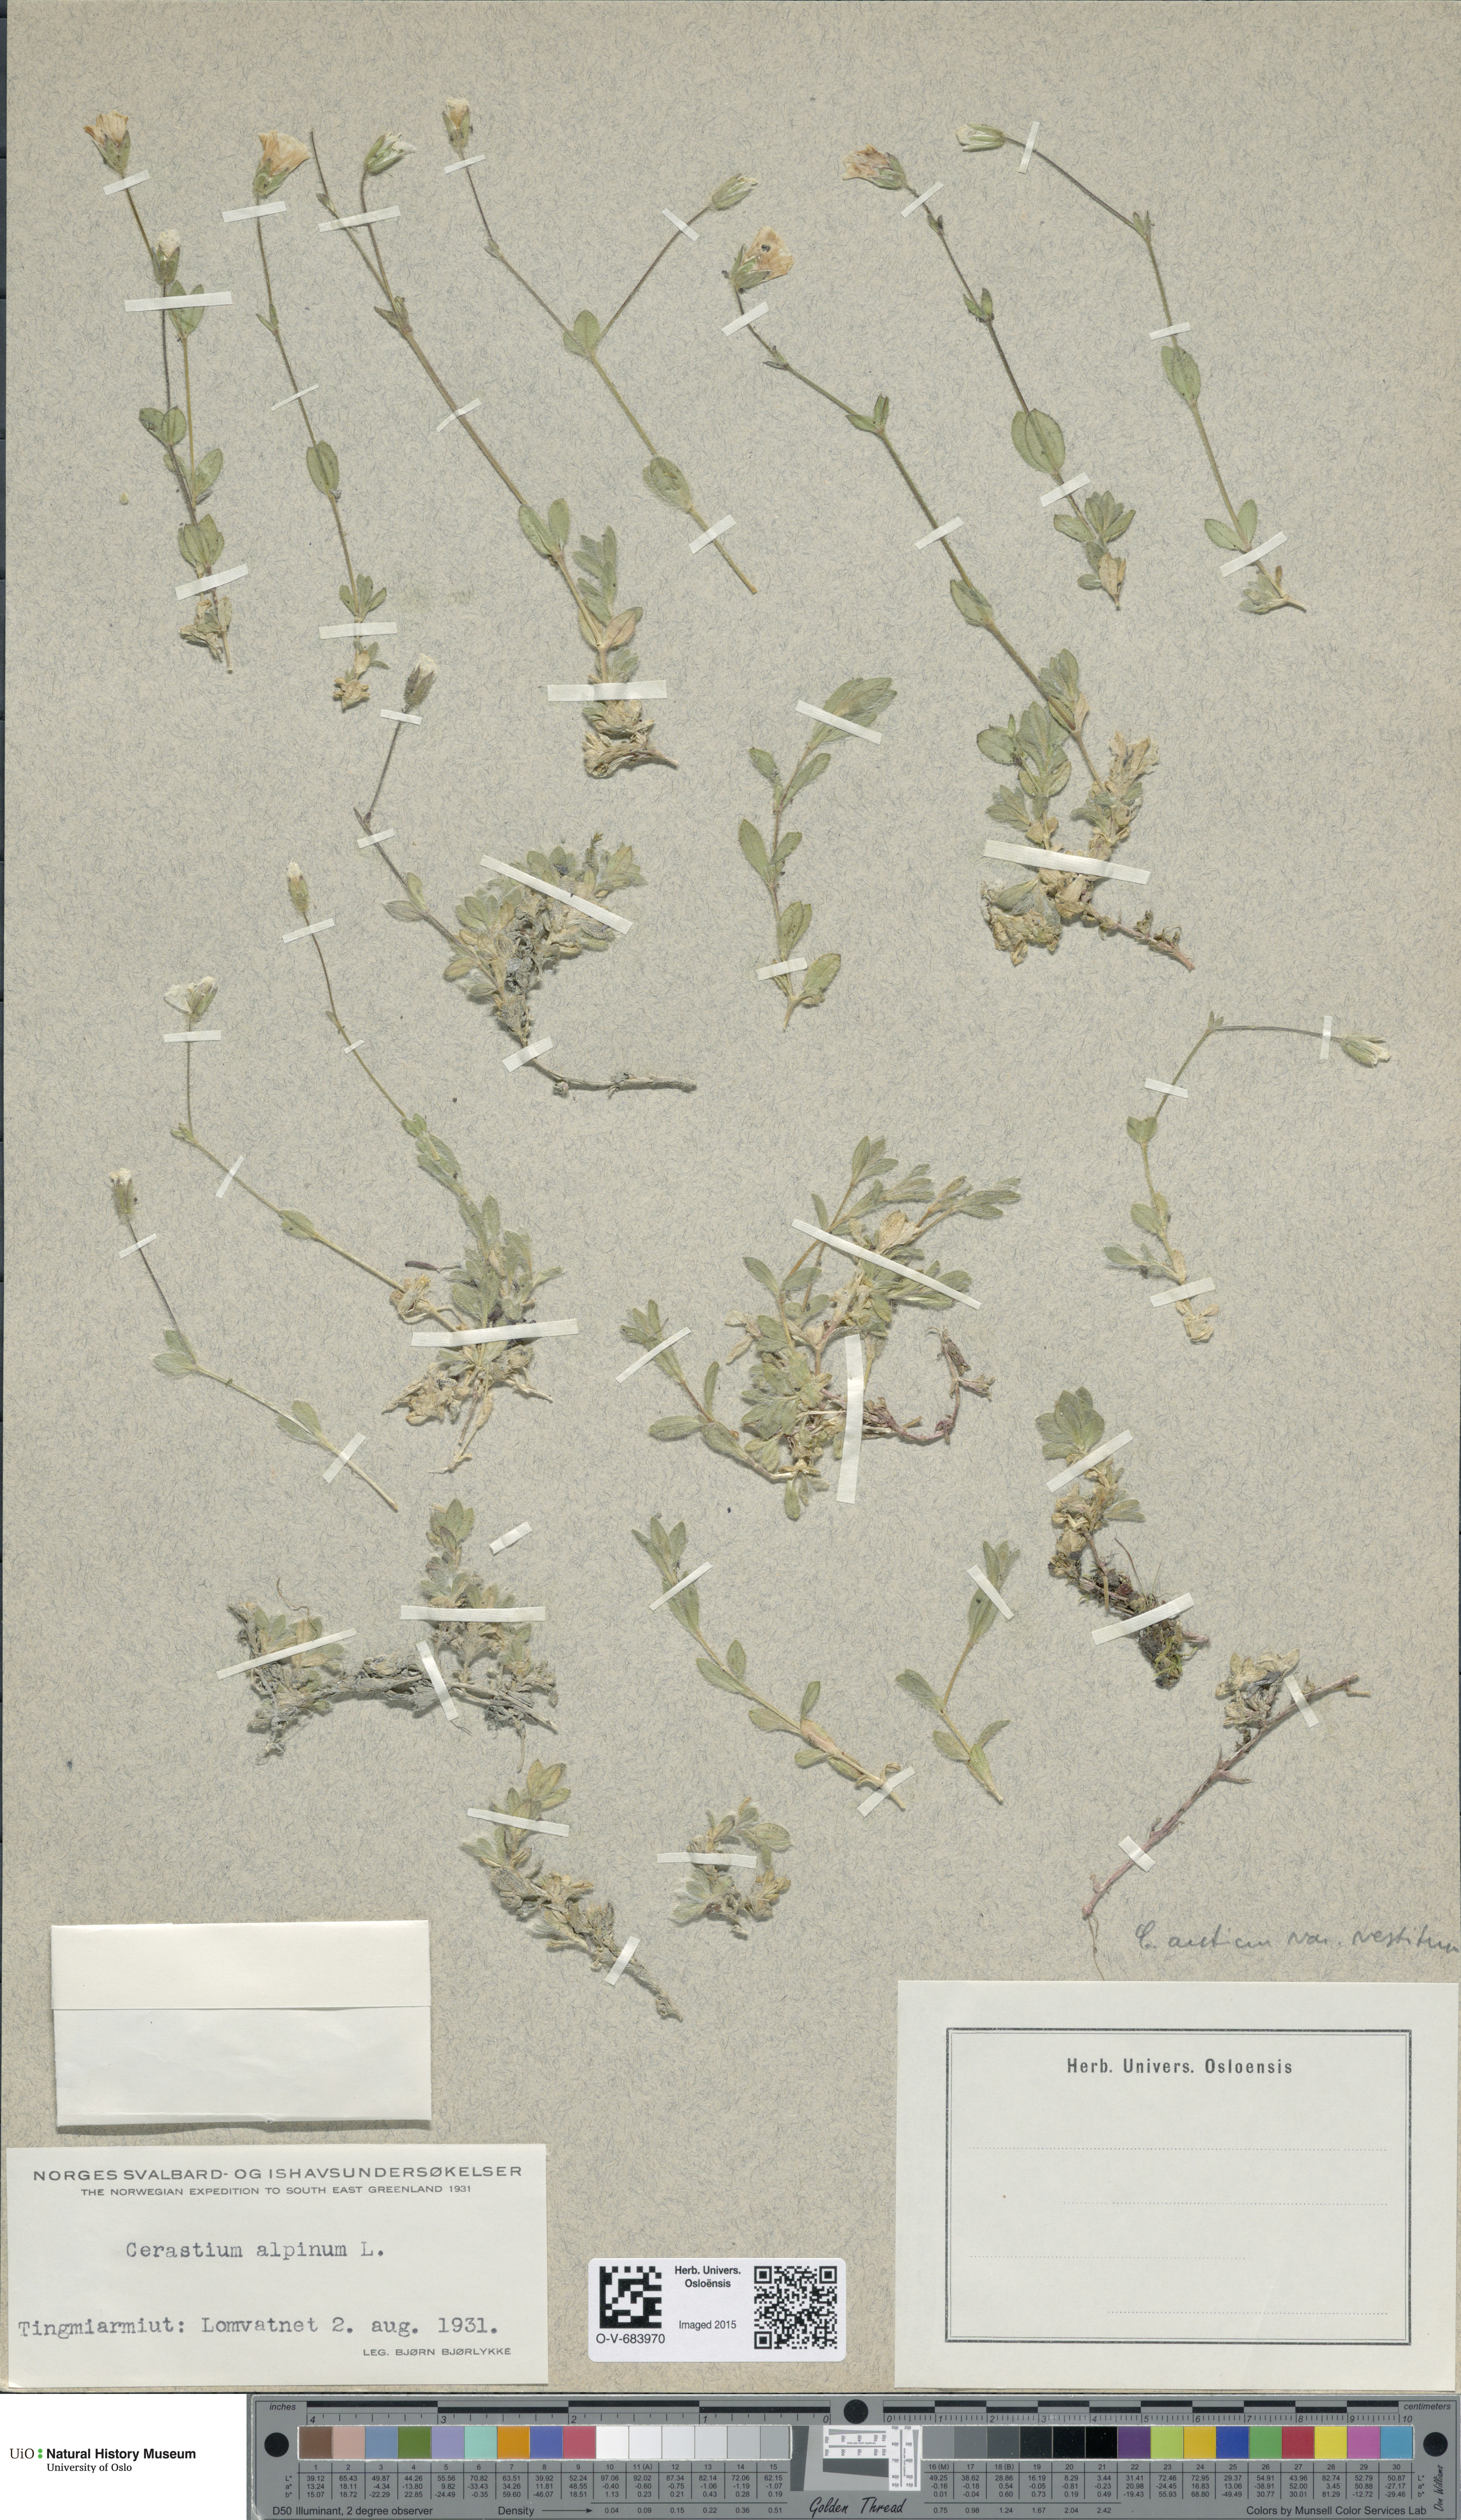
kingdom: Plantae
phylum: Tracheophyta
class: Magnoliopsida
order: Caryophyllales
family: Caryophyllaceae
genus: Cerastium
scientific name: Cerastium arcticum
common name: Arctic mouse-ear
